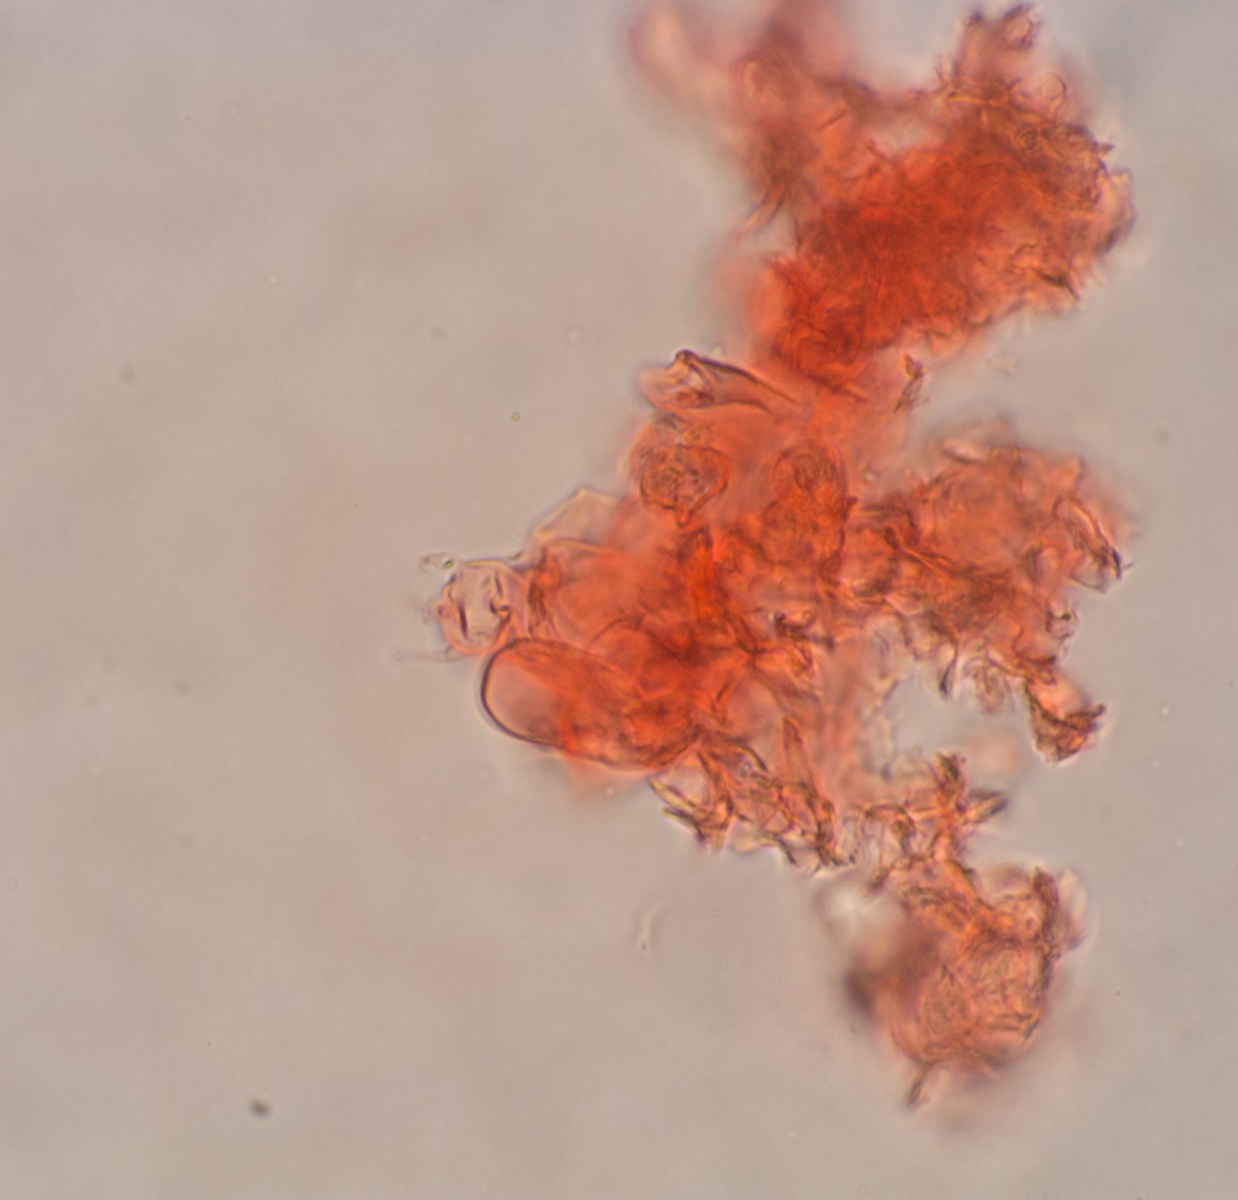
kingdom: Fungi
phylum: Basidiomycota
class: Agaricomycetes
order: Agaricales
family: Radulomycetaceae
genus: Radulomyces
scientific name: Radulomyces rickii
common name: rundsporet naftalinskind
